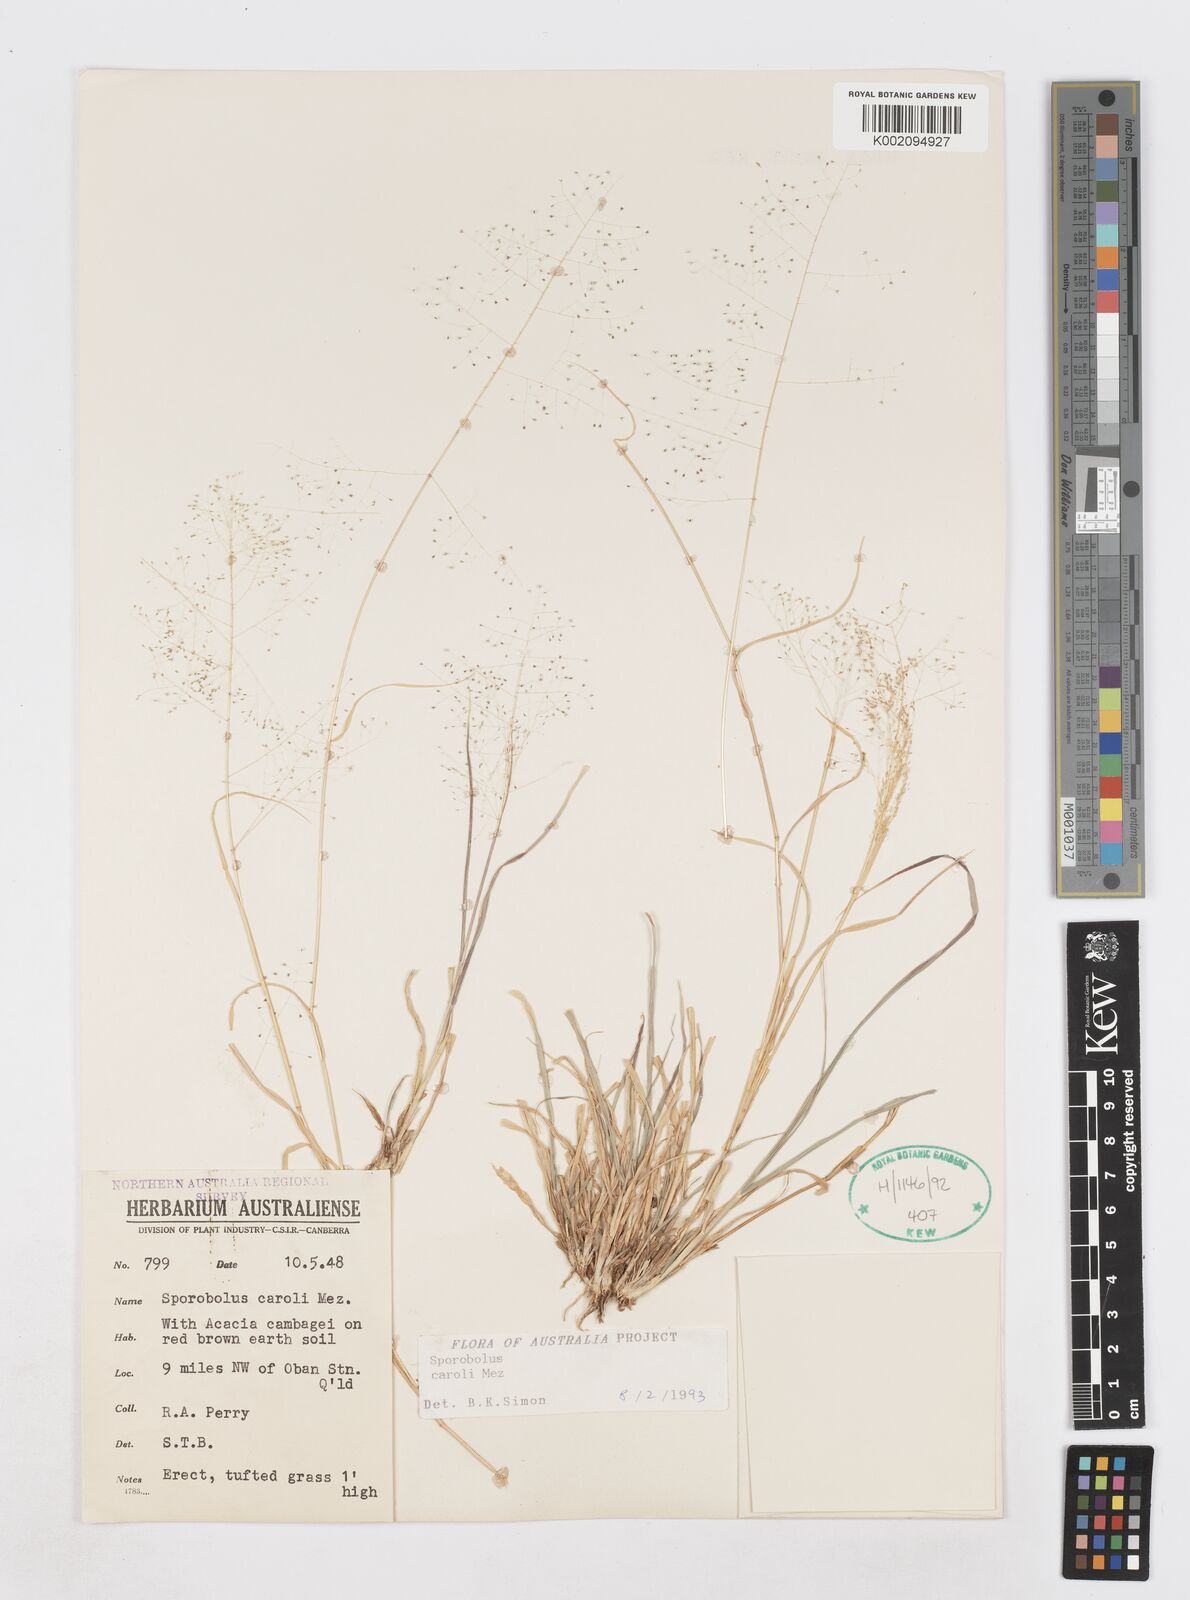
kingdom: Plantae
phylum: Tracheophyta
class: Liliopsida
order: Poales
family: Poaceae
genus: Sporobolus
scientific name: Sporobolus caroli
